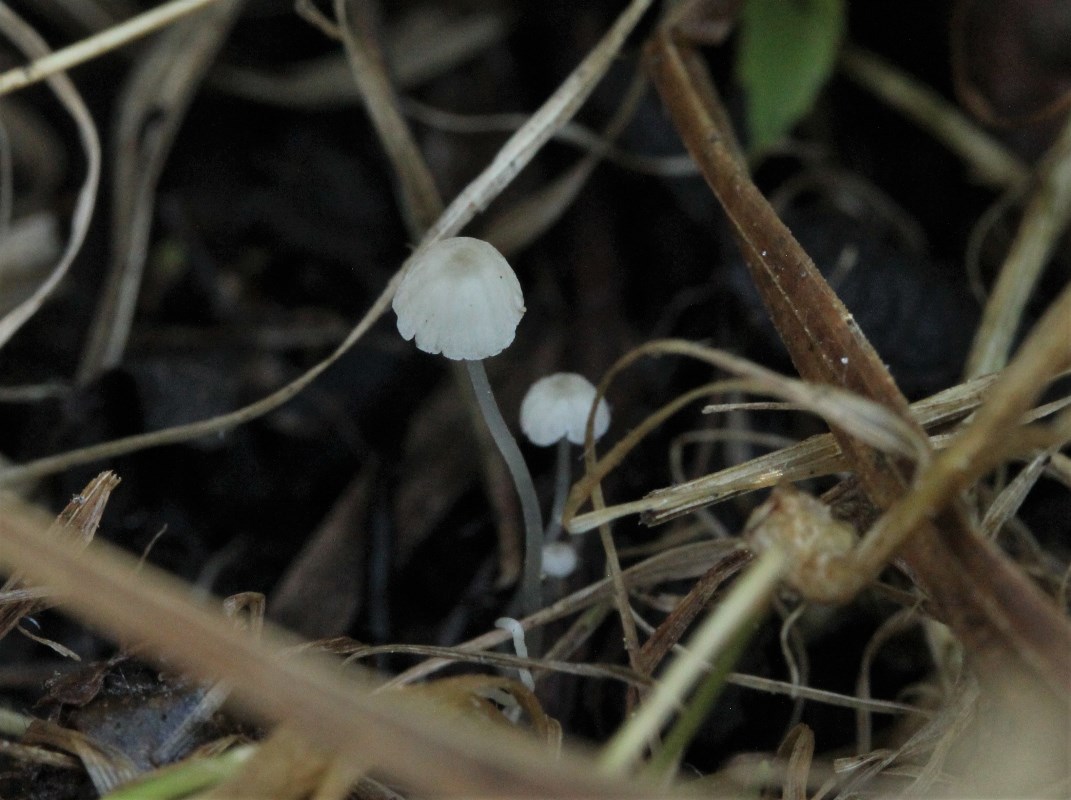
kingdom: Fungi
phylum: Basidiomycota
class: Agaricomycetes
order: Agaricales
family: Porotheleaceae
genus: Phloeomana
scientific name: Phloeomana speirea
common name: kvist-huesvamp
